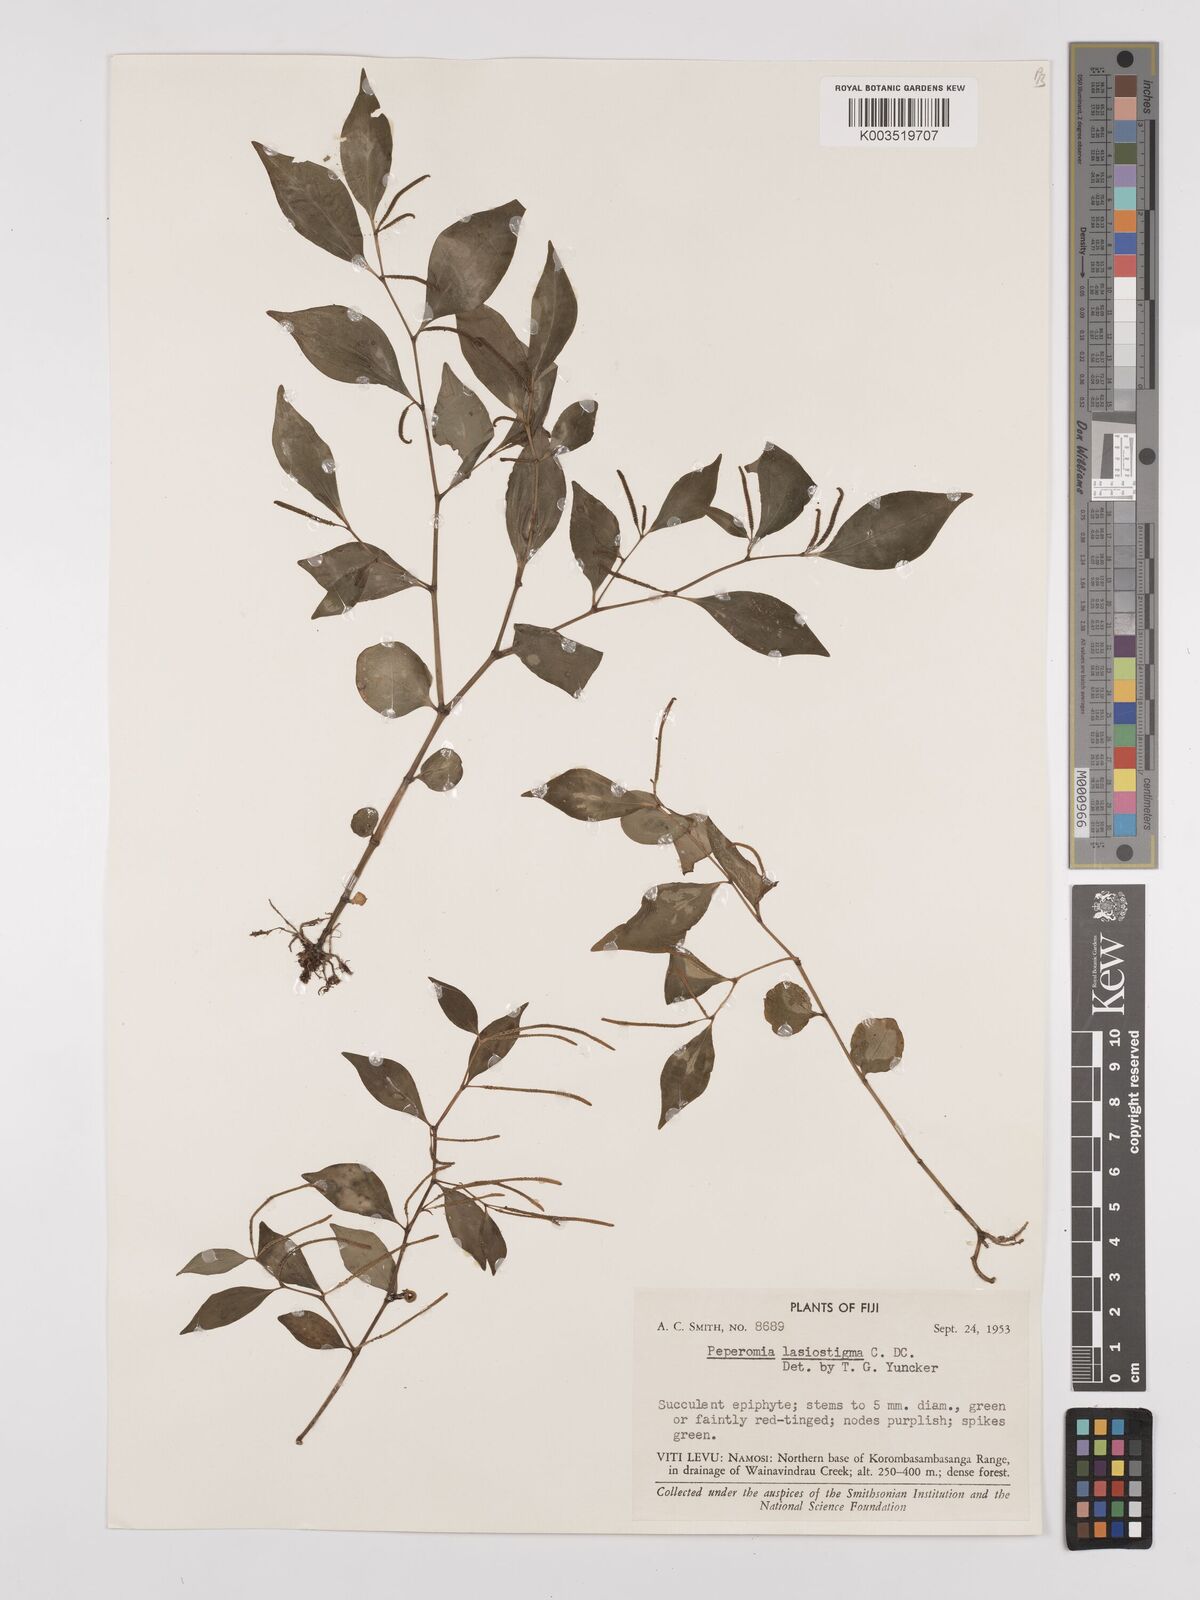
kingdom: Plantae
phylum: Tracheophyta
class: Magnoliopsida
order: Piperales
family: Piperaceae
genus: Peperomia
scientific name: Peperomia lasiostigma
